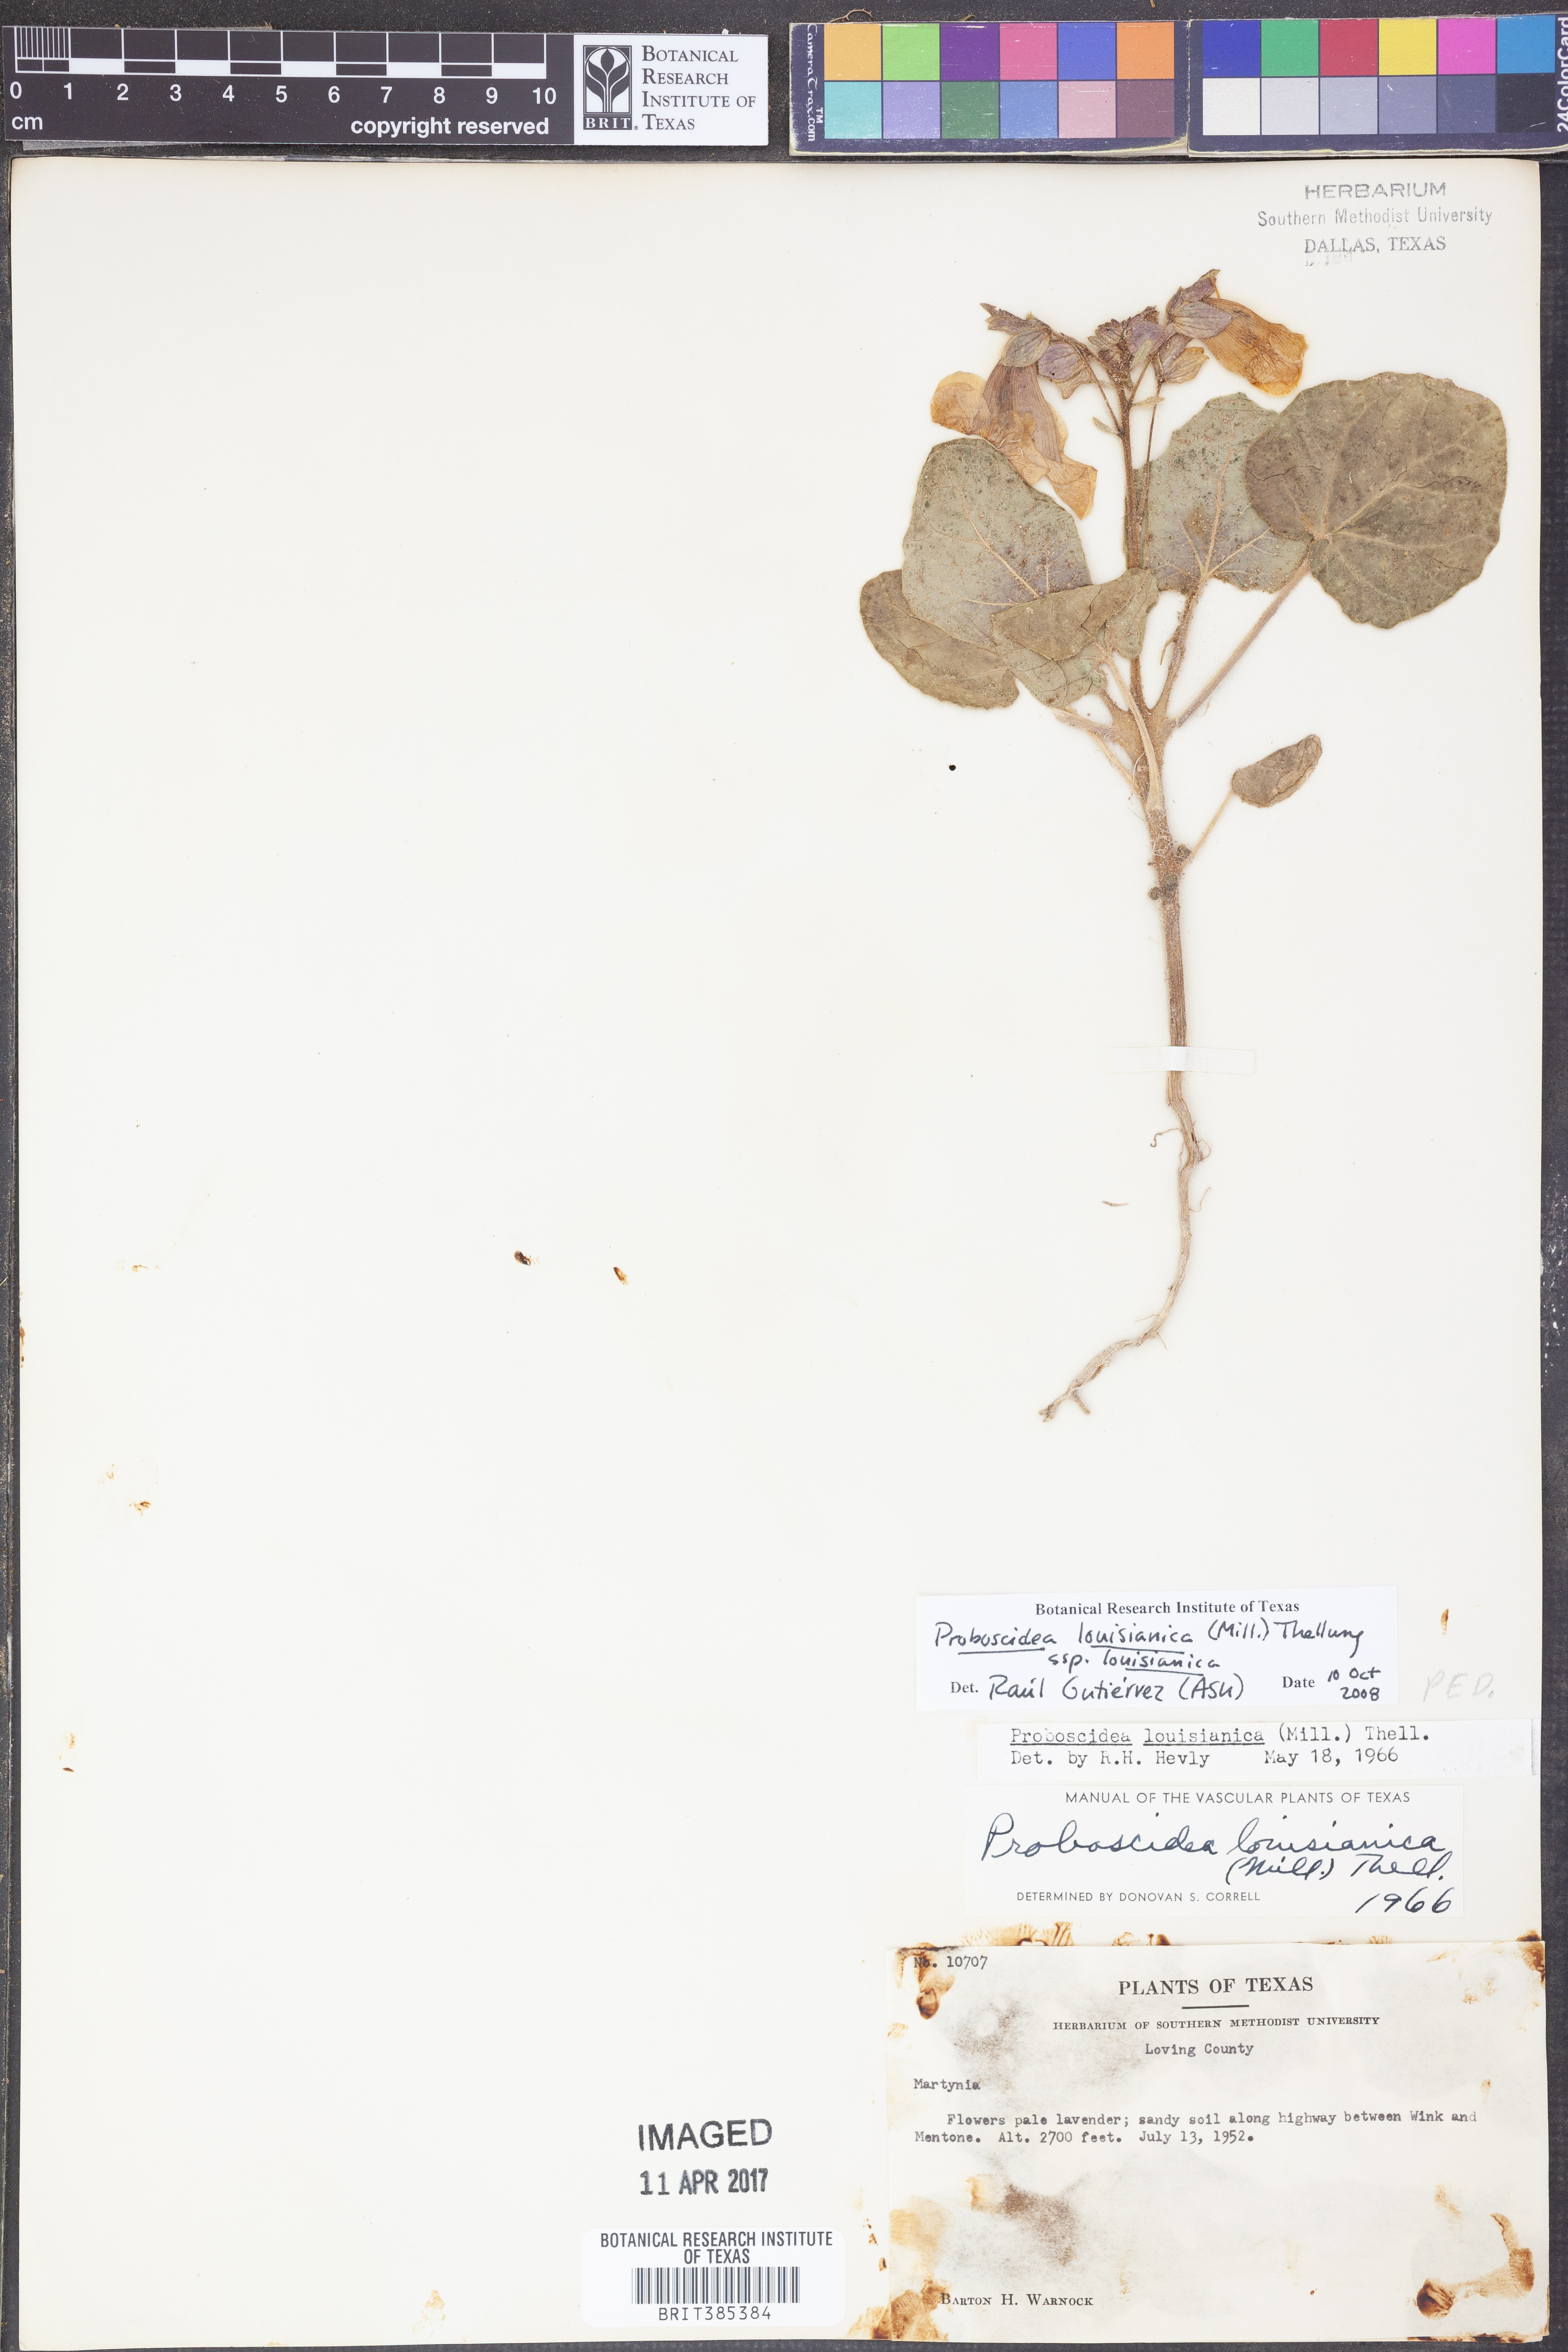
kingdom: Plantae
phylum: Tracheophyta
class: Magnoliopsida
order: Lamiales
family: Martyniaceae
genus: Proboscidea
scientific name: Proboscidea louisianica
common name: Elephant tusks
